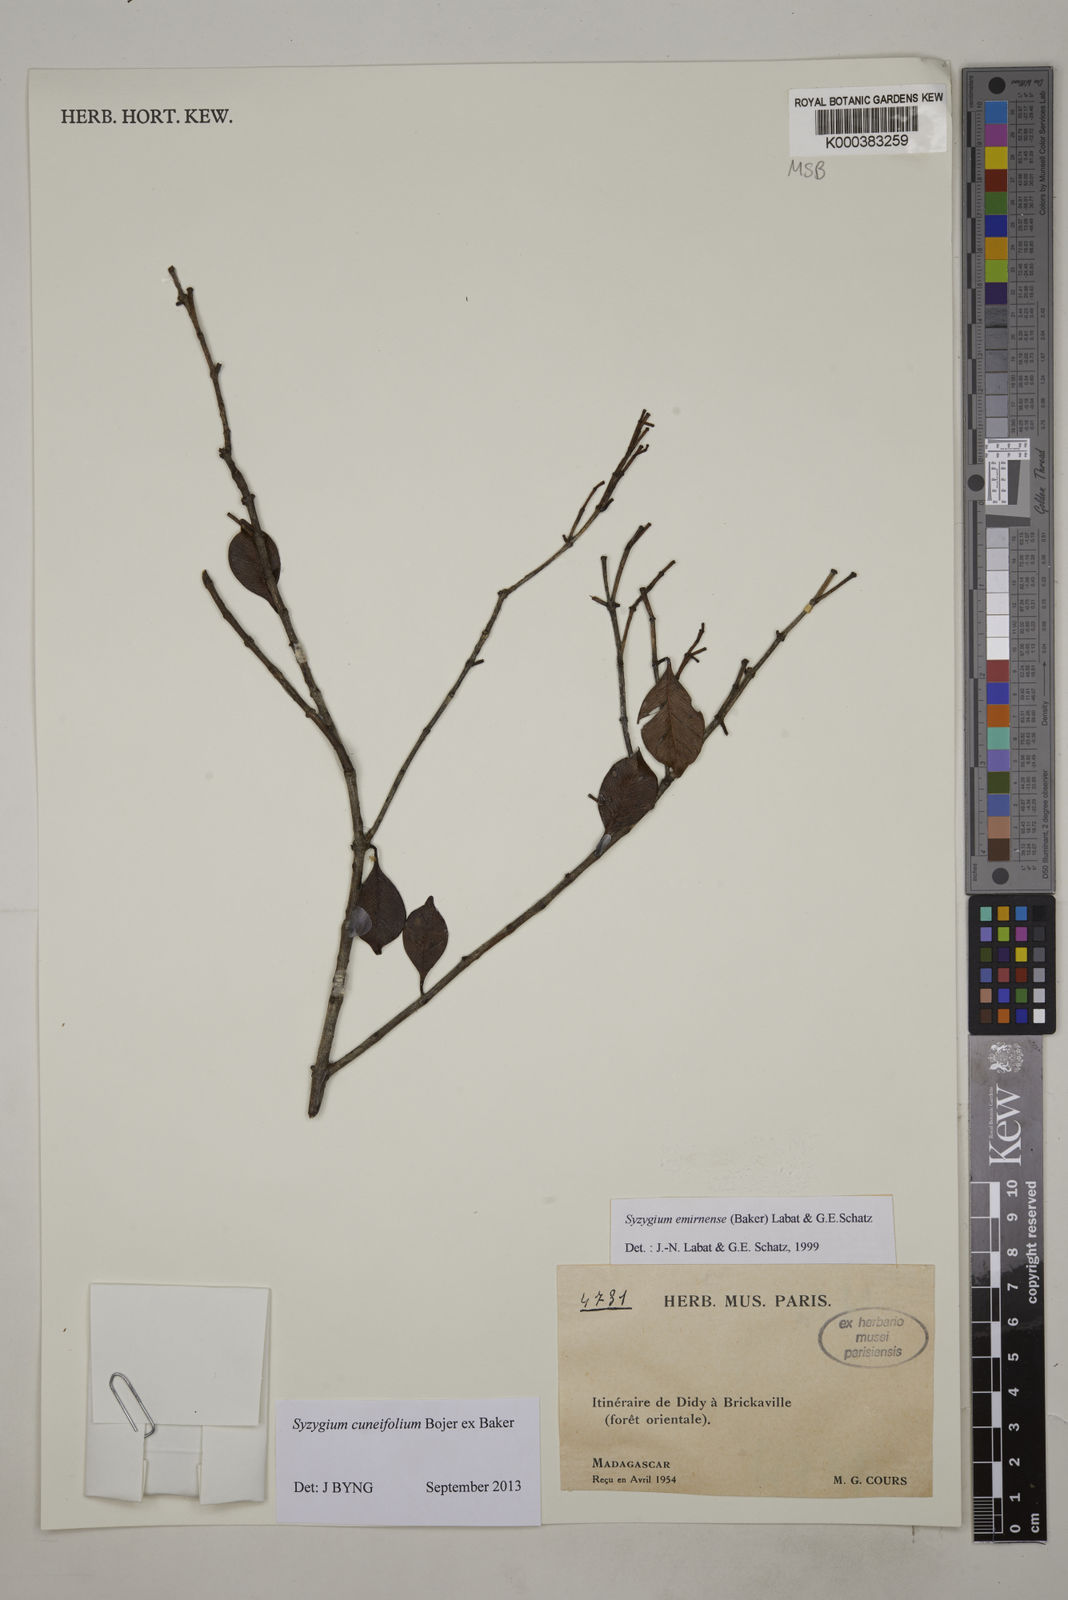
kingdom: Plantae
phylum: Tracheophyta
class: Magnoliopsida
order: Myrtales
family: Myrtaceae
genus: Syzygium
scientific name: Syzygium emirnense
